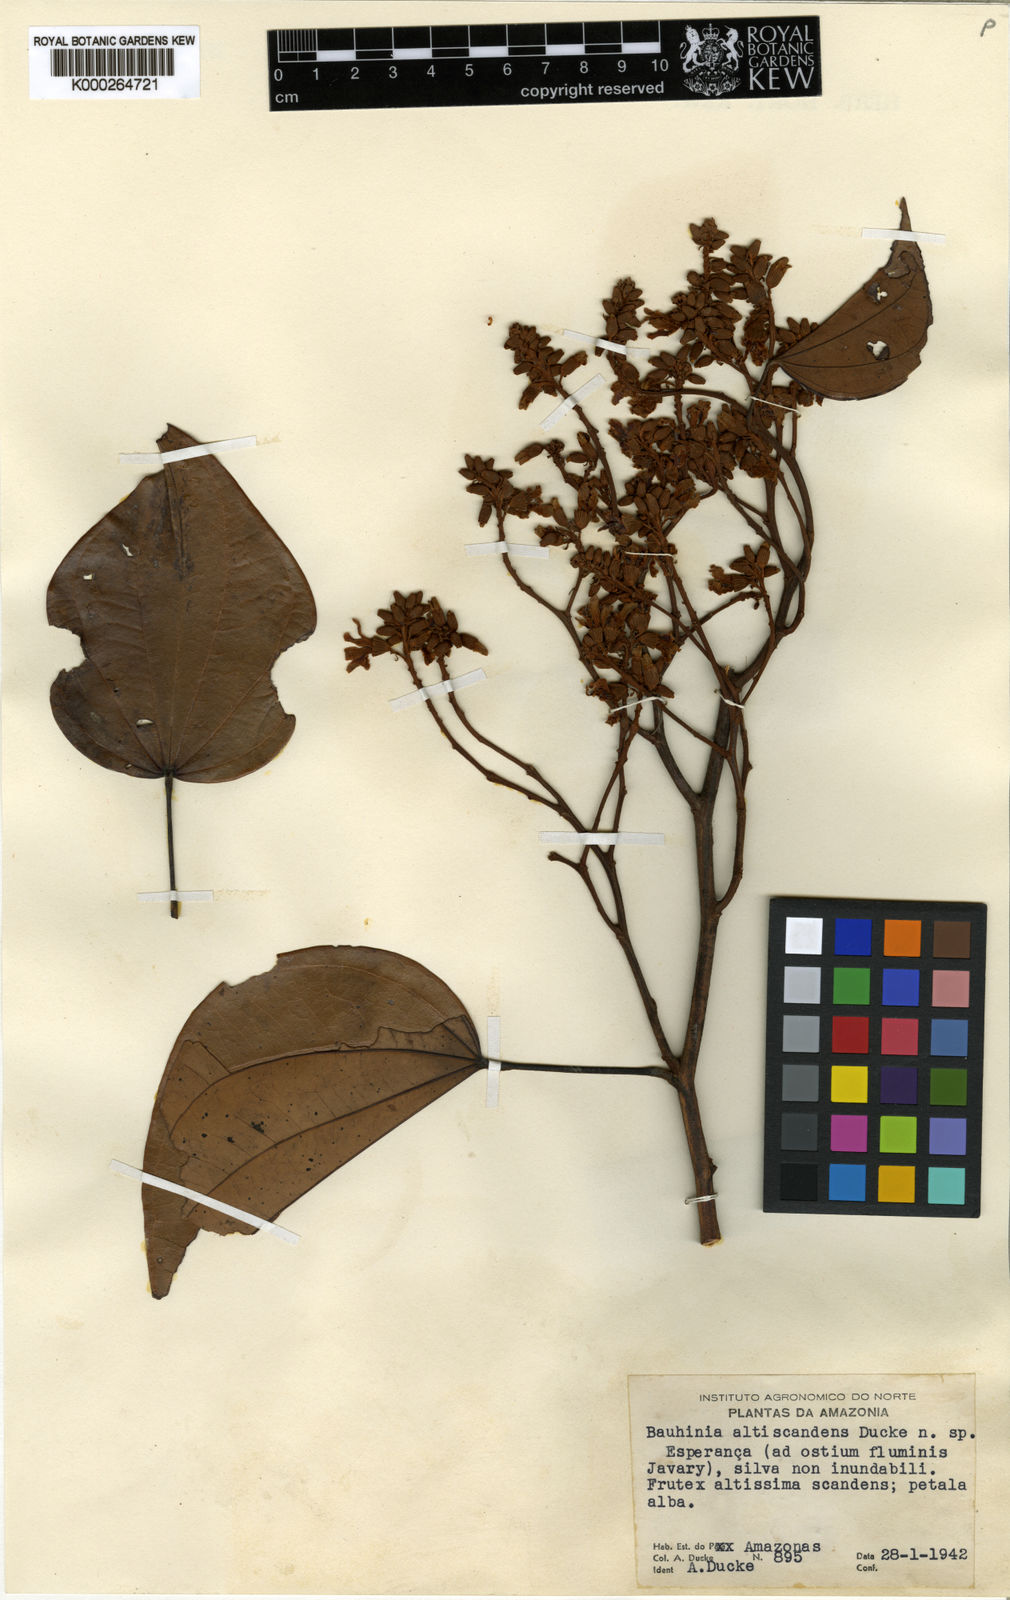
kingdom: Plantae
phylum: Tracheophyta
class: Magnoliopsida
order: Fabales
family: Fabaceae
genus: Schnella
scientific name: Schnella altiscandens
